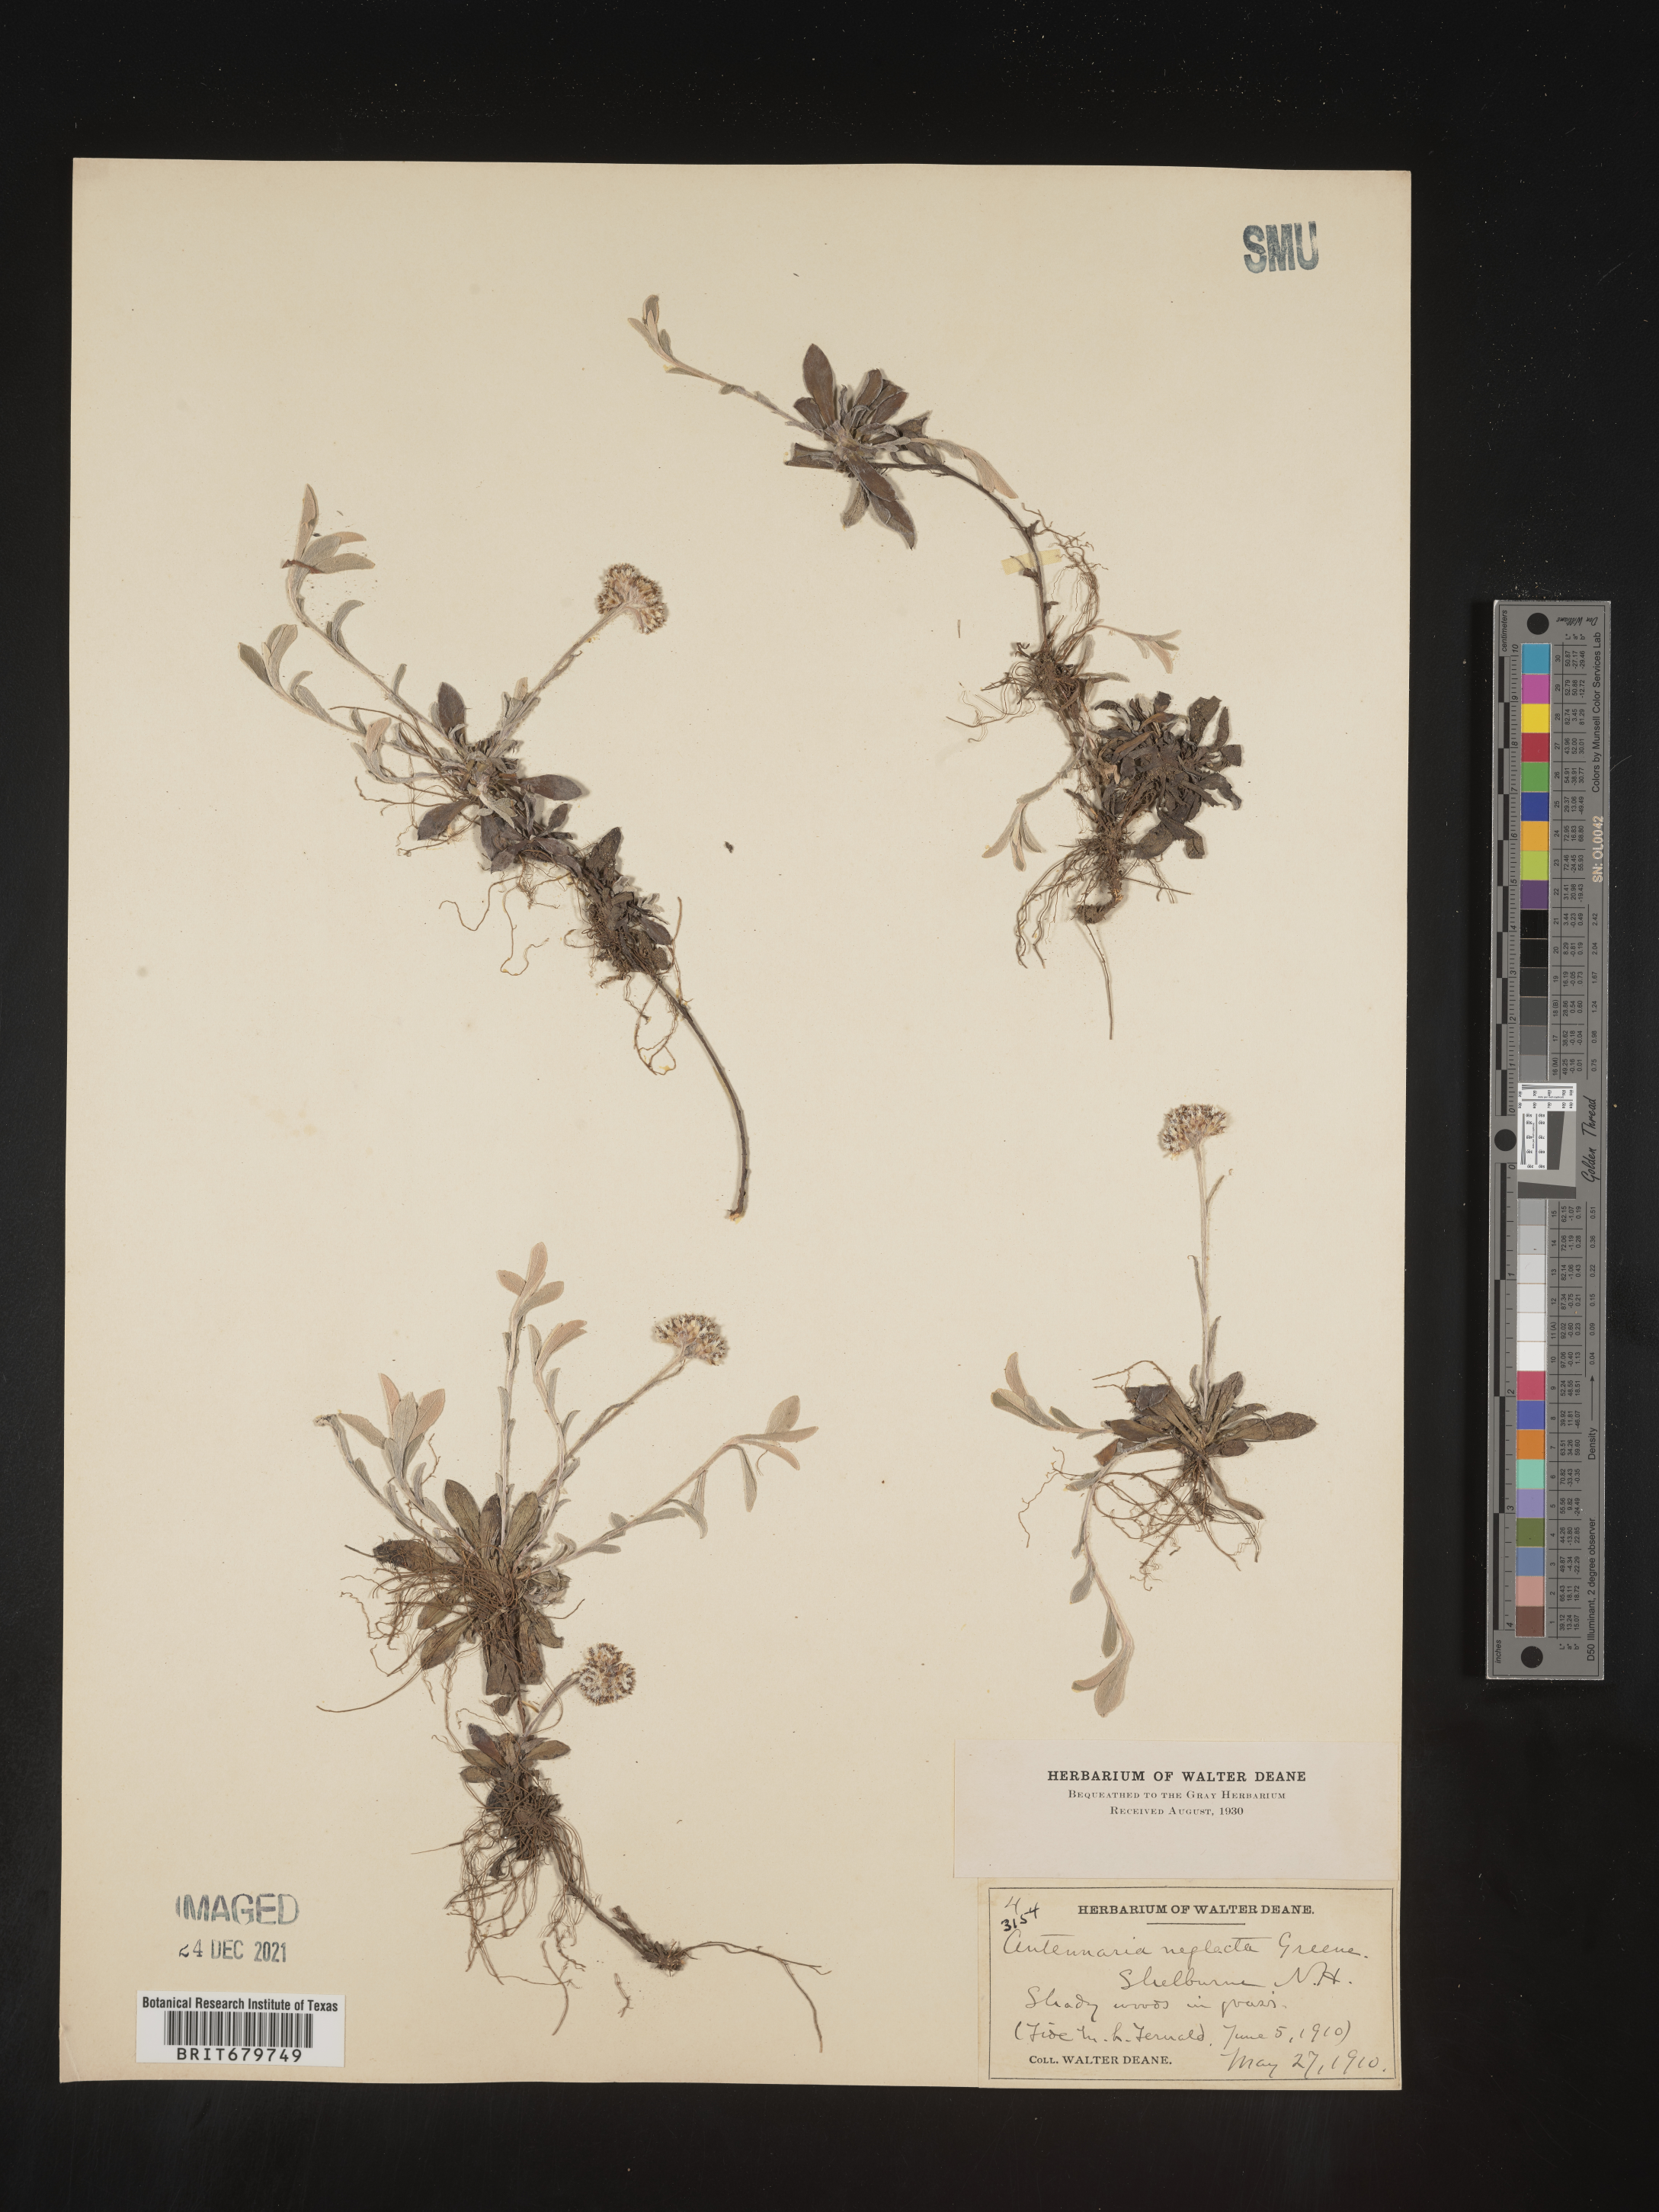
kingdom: Plantae
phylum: Tracheophyta
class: Magnoliopsida
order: Asterales
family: Asteraceae
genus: Antennaria
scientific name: Antennaria neglecta
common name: Field pussytoes
